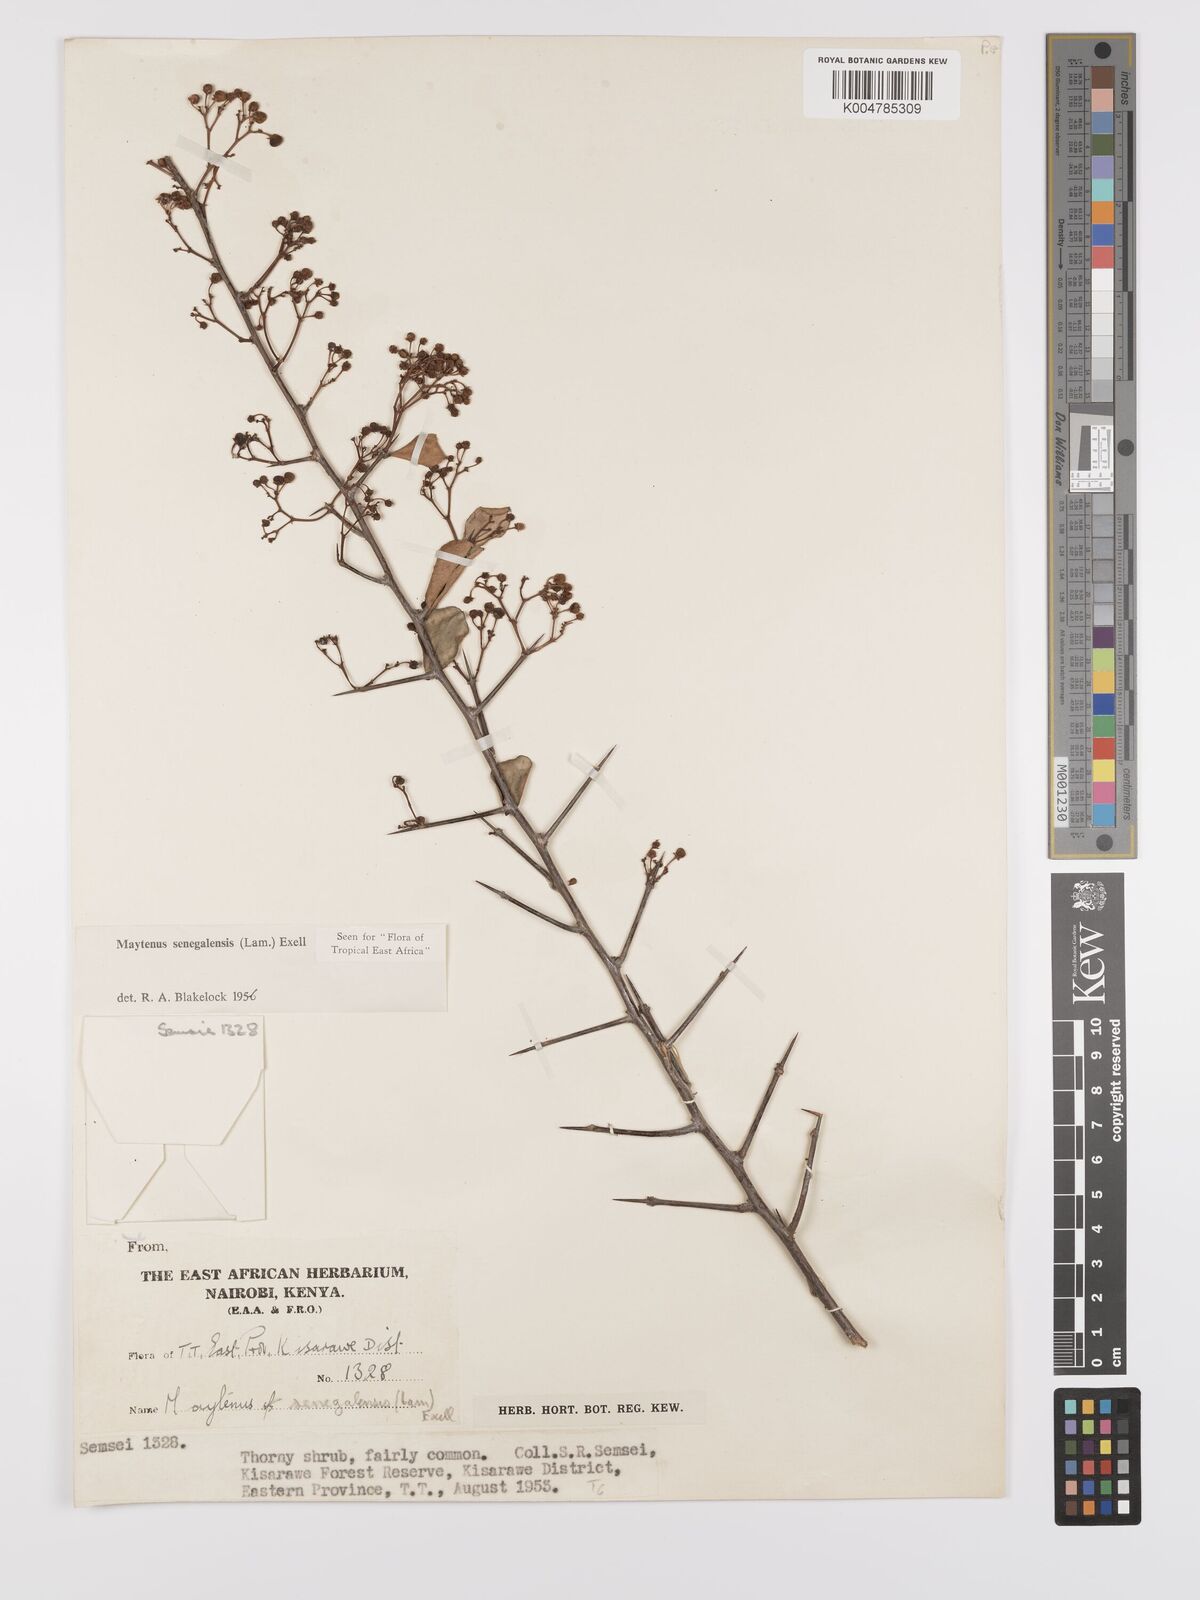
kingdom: Plantae
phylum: Tracheophyta
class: Magnoliopsida
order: Celastrales
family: Celastraceae
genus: Gymnosporia
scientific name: Gymnosporia heterophylla
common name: Angle-stem spikethorn
